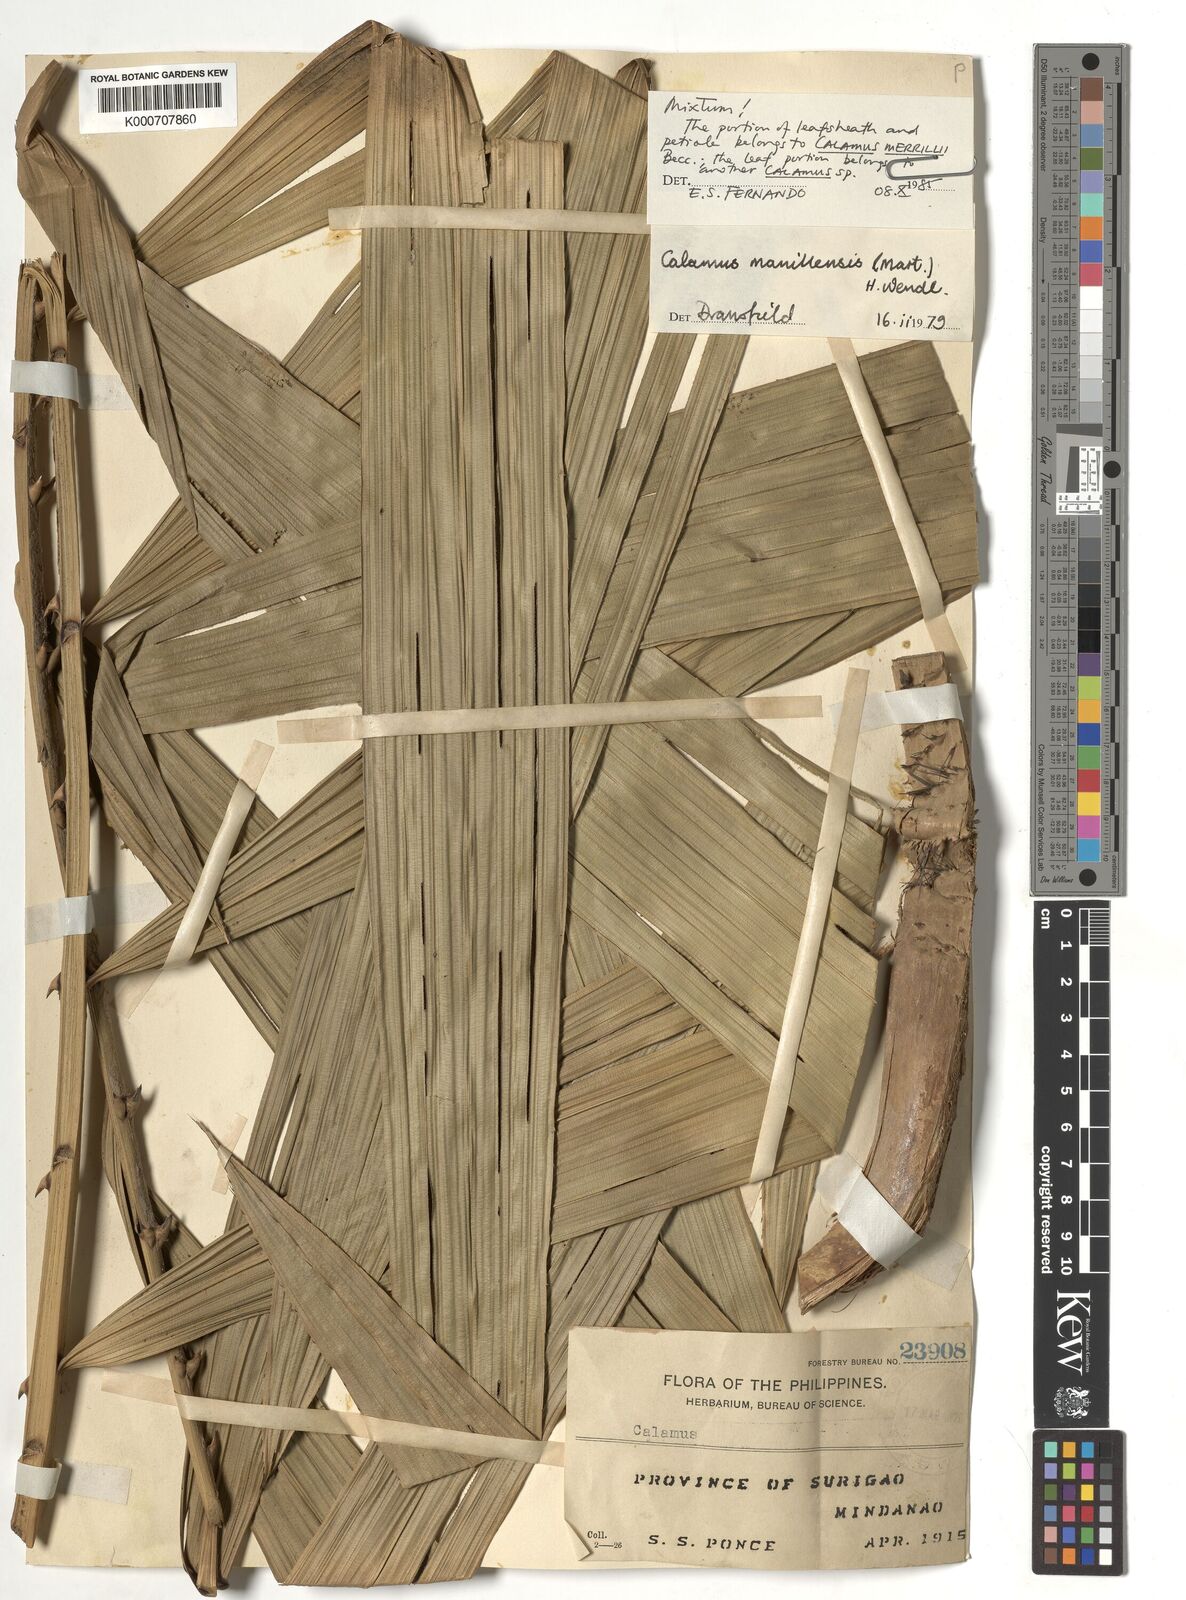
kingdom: Plantae
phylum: Tracheophyta
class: Liliopsida
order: Arecales
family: Arecaceae
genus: Calamus
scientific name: Calamus manillensis
